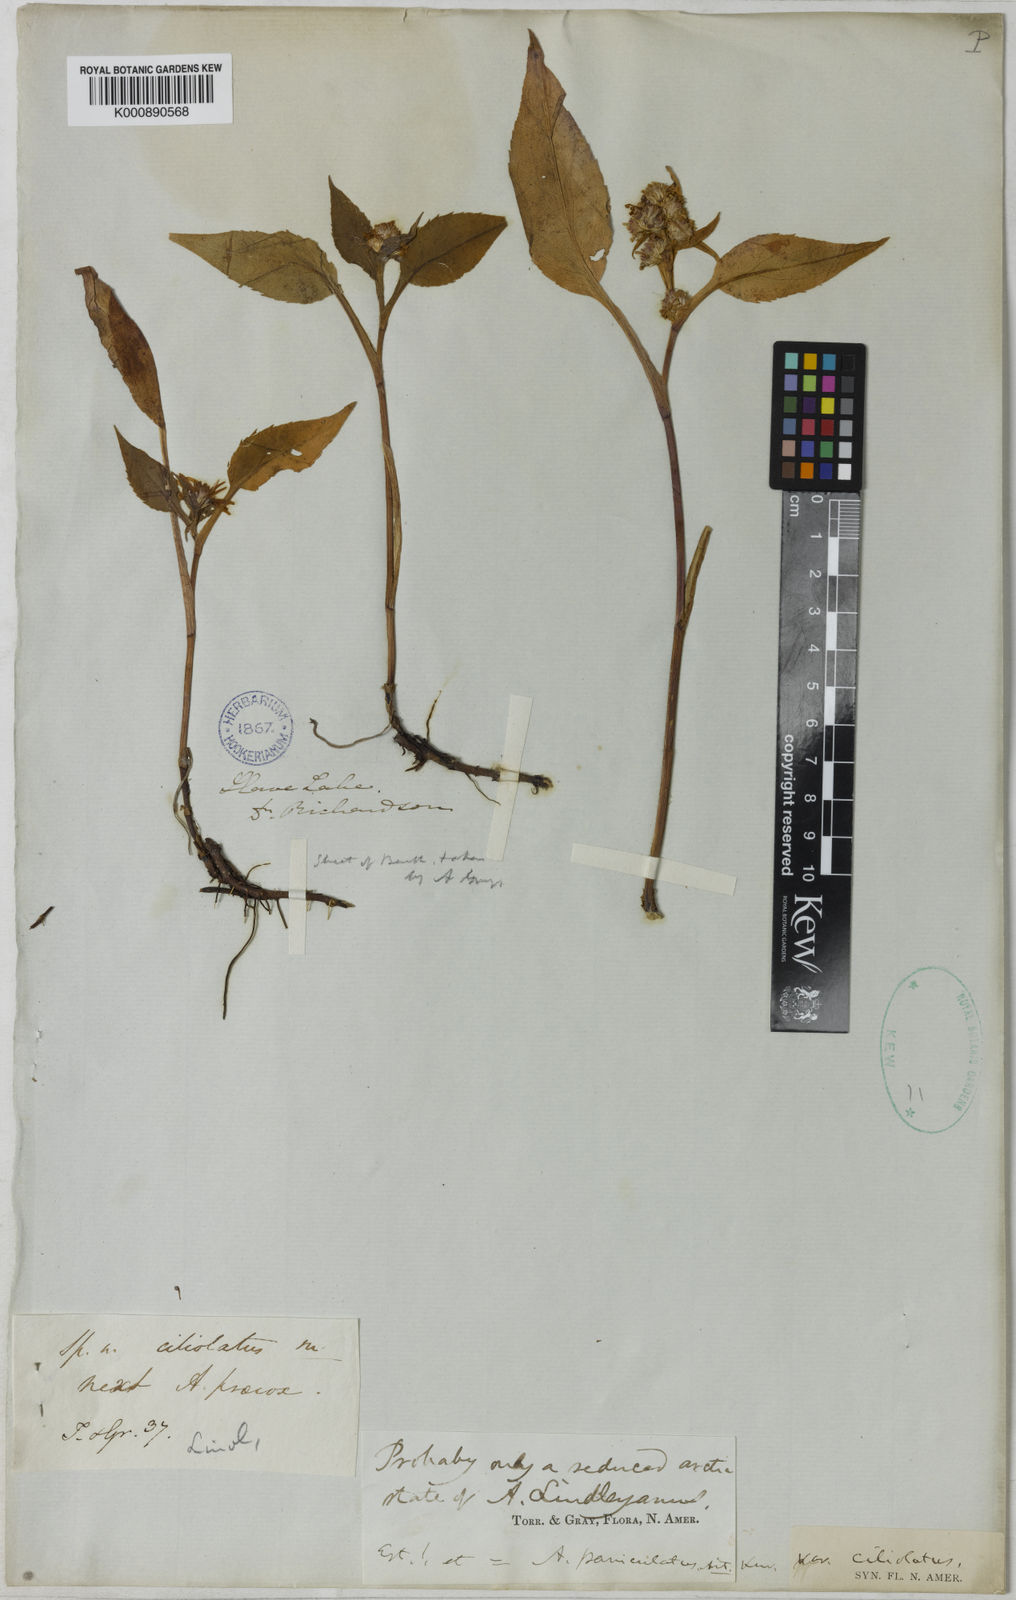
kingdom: Plantae
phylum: Tracheophyta
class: Magnoliopsida
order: Asterales
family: Asteraceae
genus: Symphyotrichum
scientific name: Symphyotrichum ciliolatum
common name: Fringed blue aster
